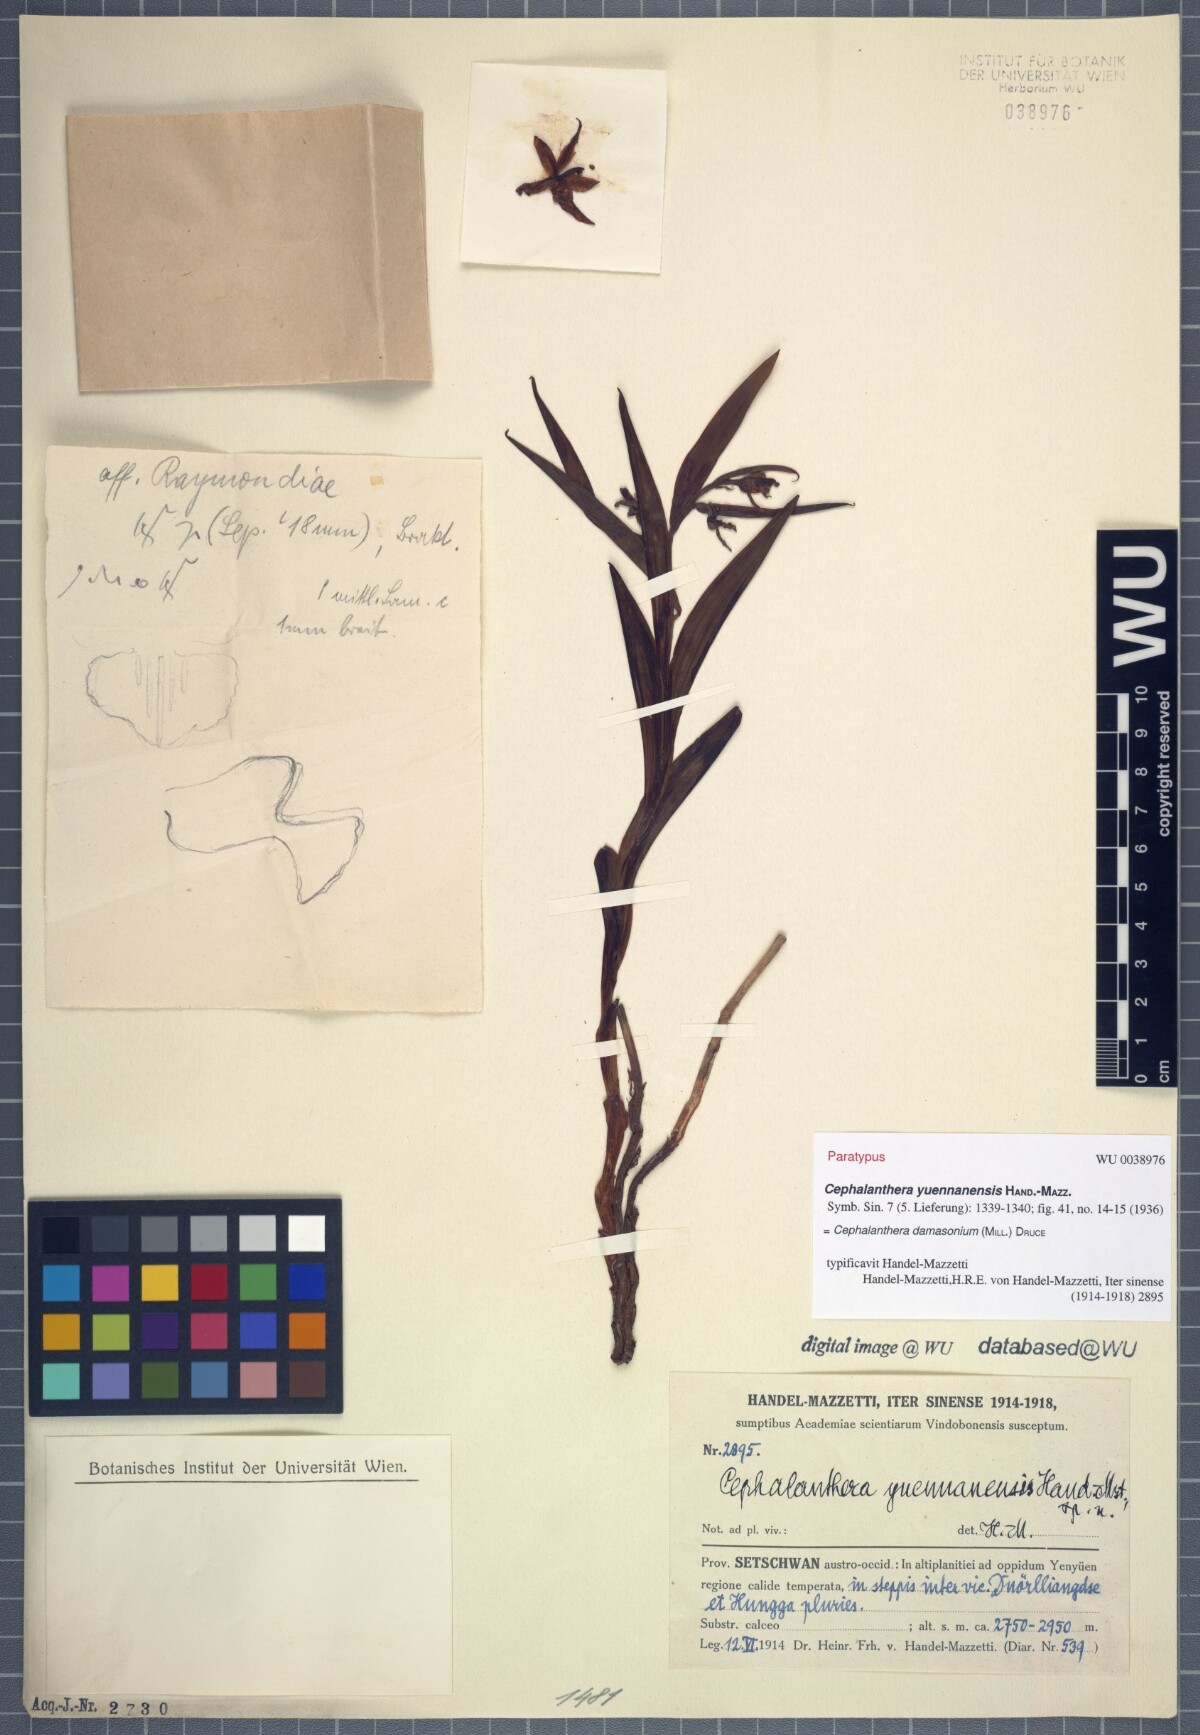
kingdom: Plantae
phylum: Tracheophyta
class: Liliopsida
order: Asparagales
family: Orchidaceae
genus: Cephalanthera
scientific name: Cephalanthera damasonium
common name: White helleborine
